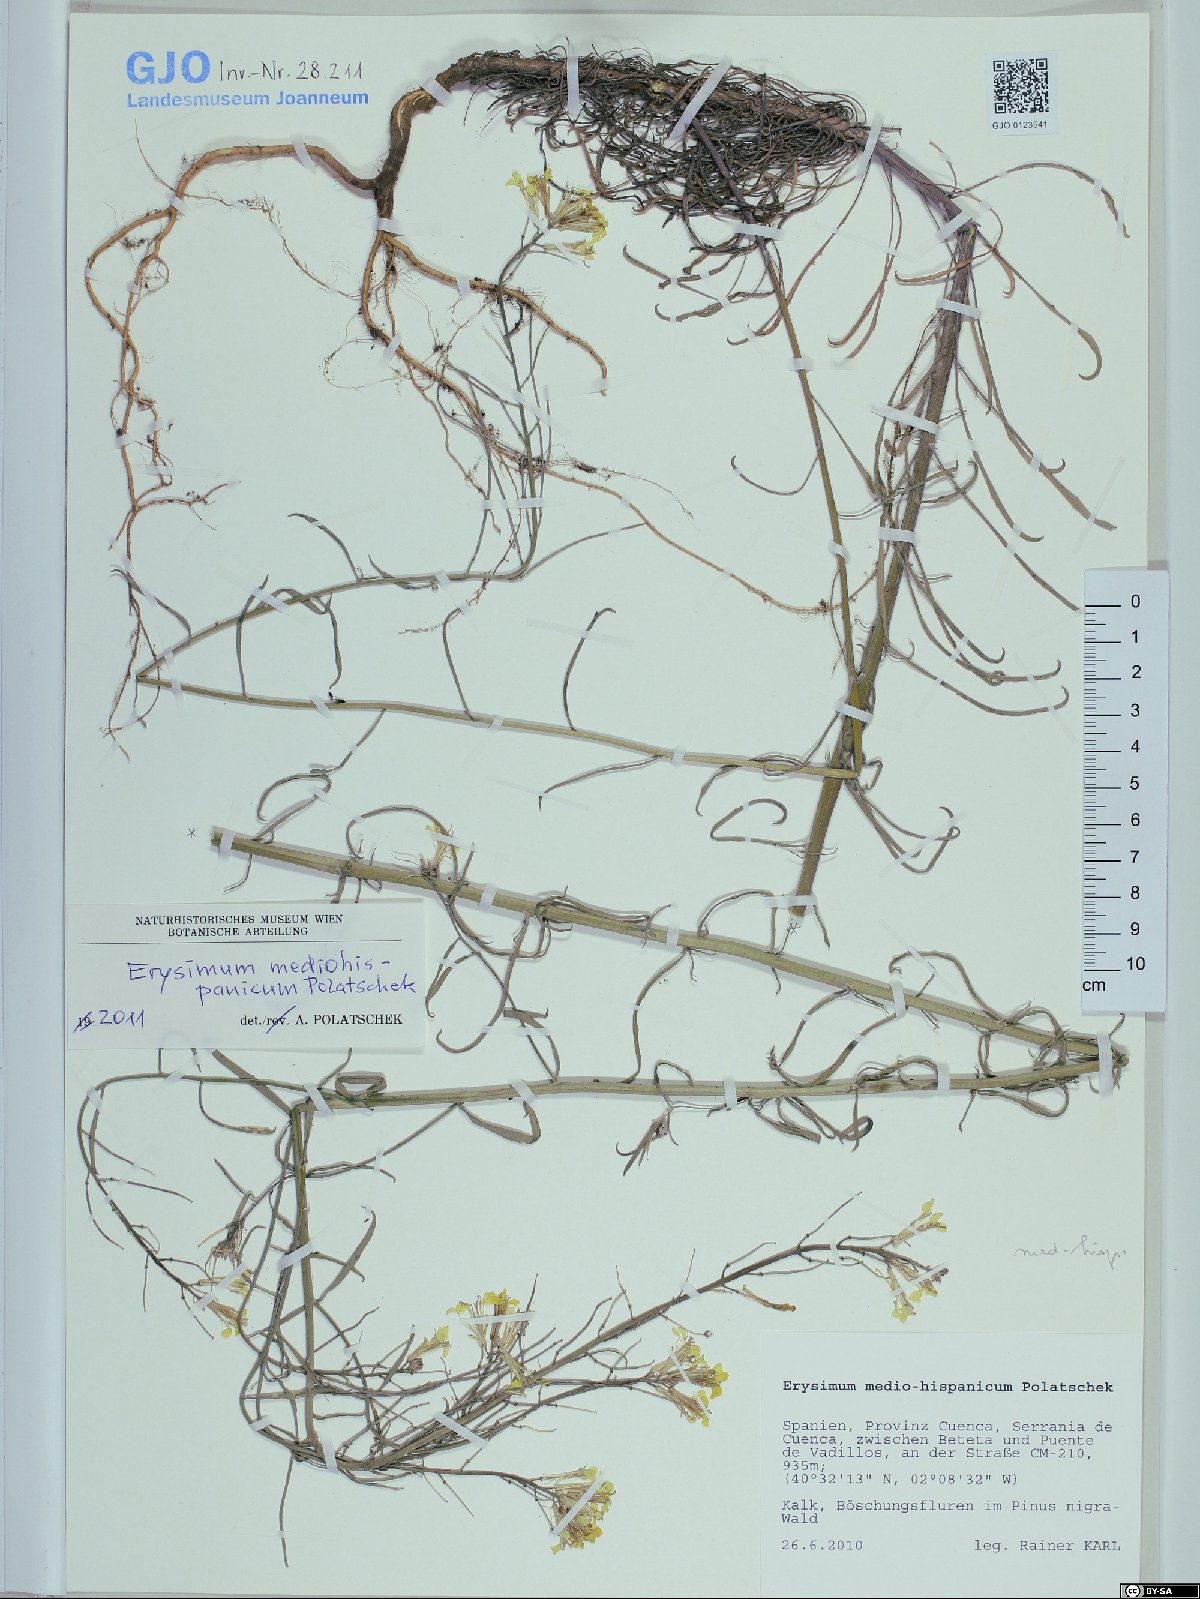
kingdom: Plantae
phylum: Tracheophyta
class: Magnoliopsida
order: Brassicales
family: Brassicaceae
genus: Erysimum
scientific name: Erysimum nevadense
